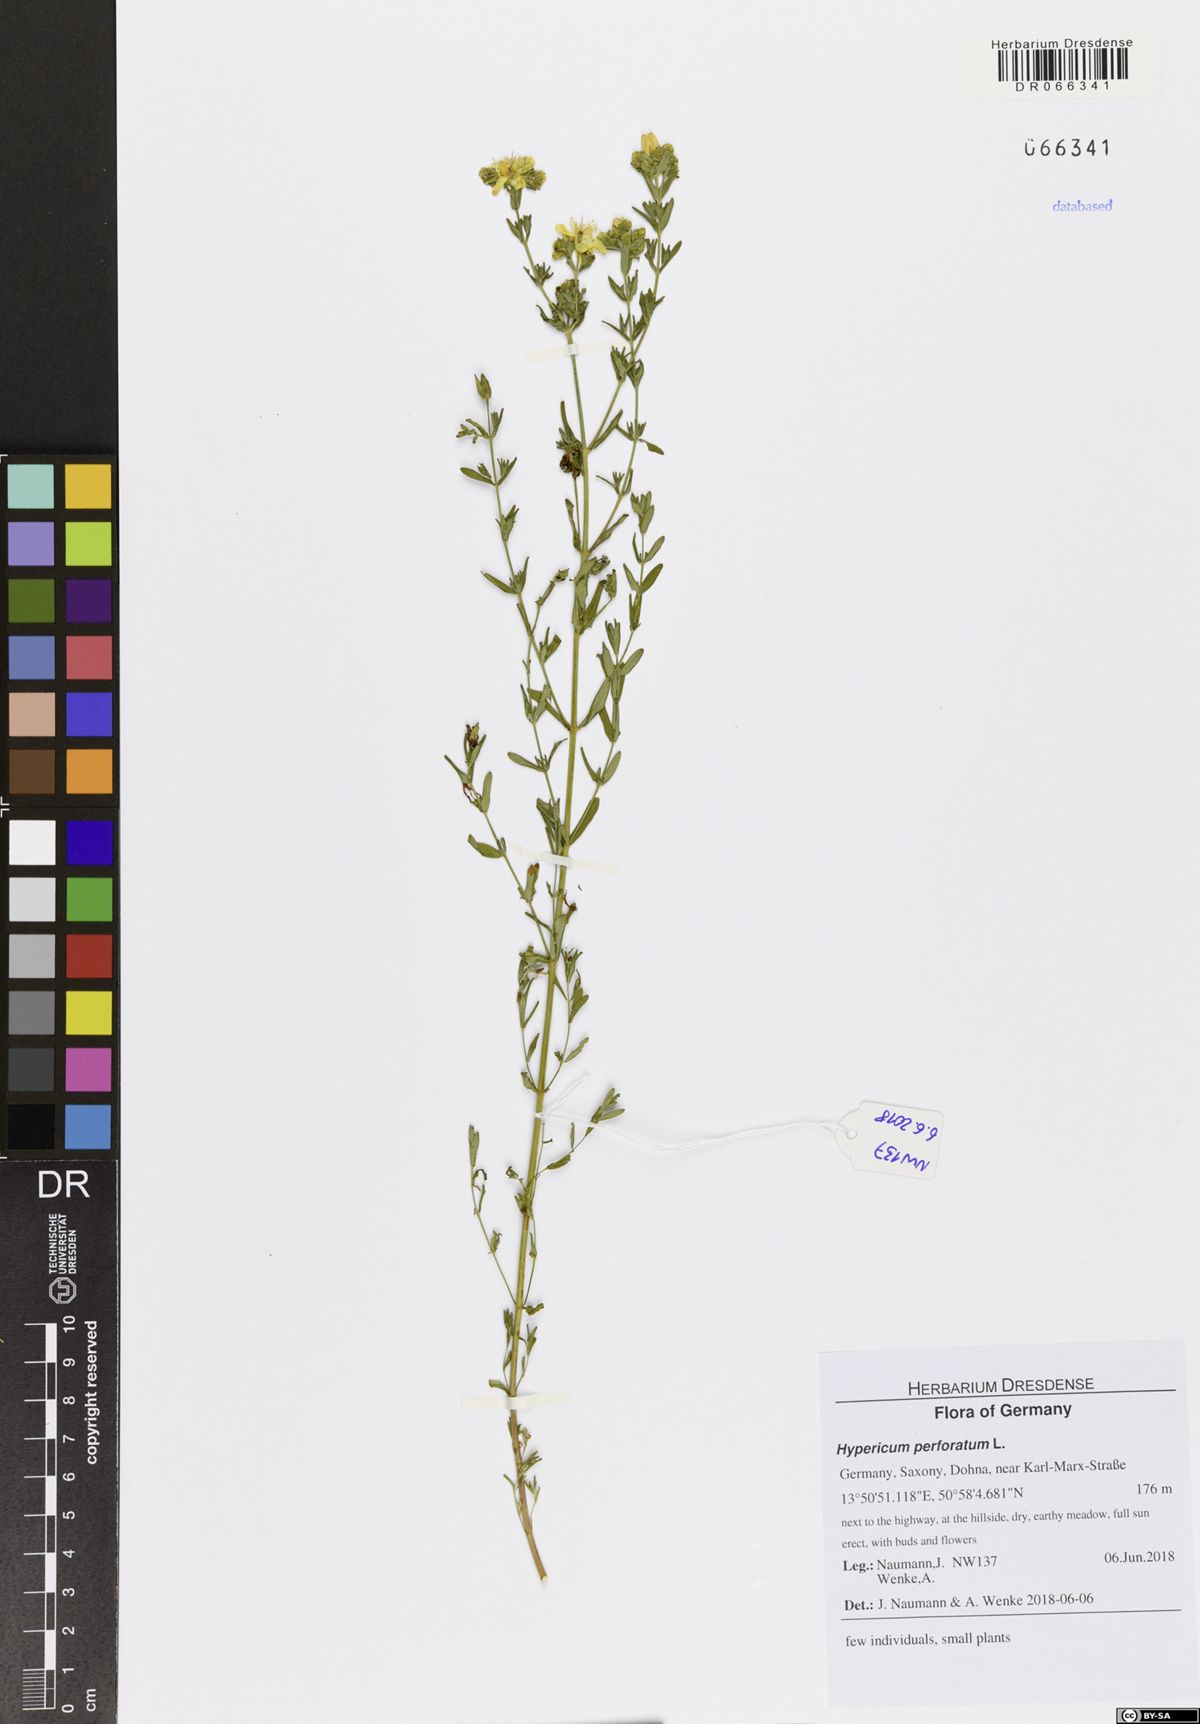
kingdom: Plantae
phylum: Tracheophyta
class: Magnoliopsida
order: Malpighiales
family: Hypericaceae
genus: Hypericum
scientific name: Hypericum perforatum
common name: Common st. johnswort
